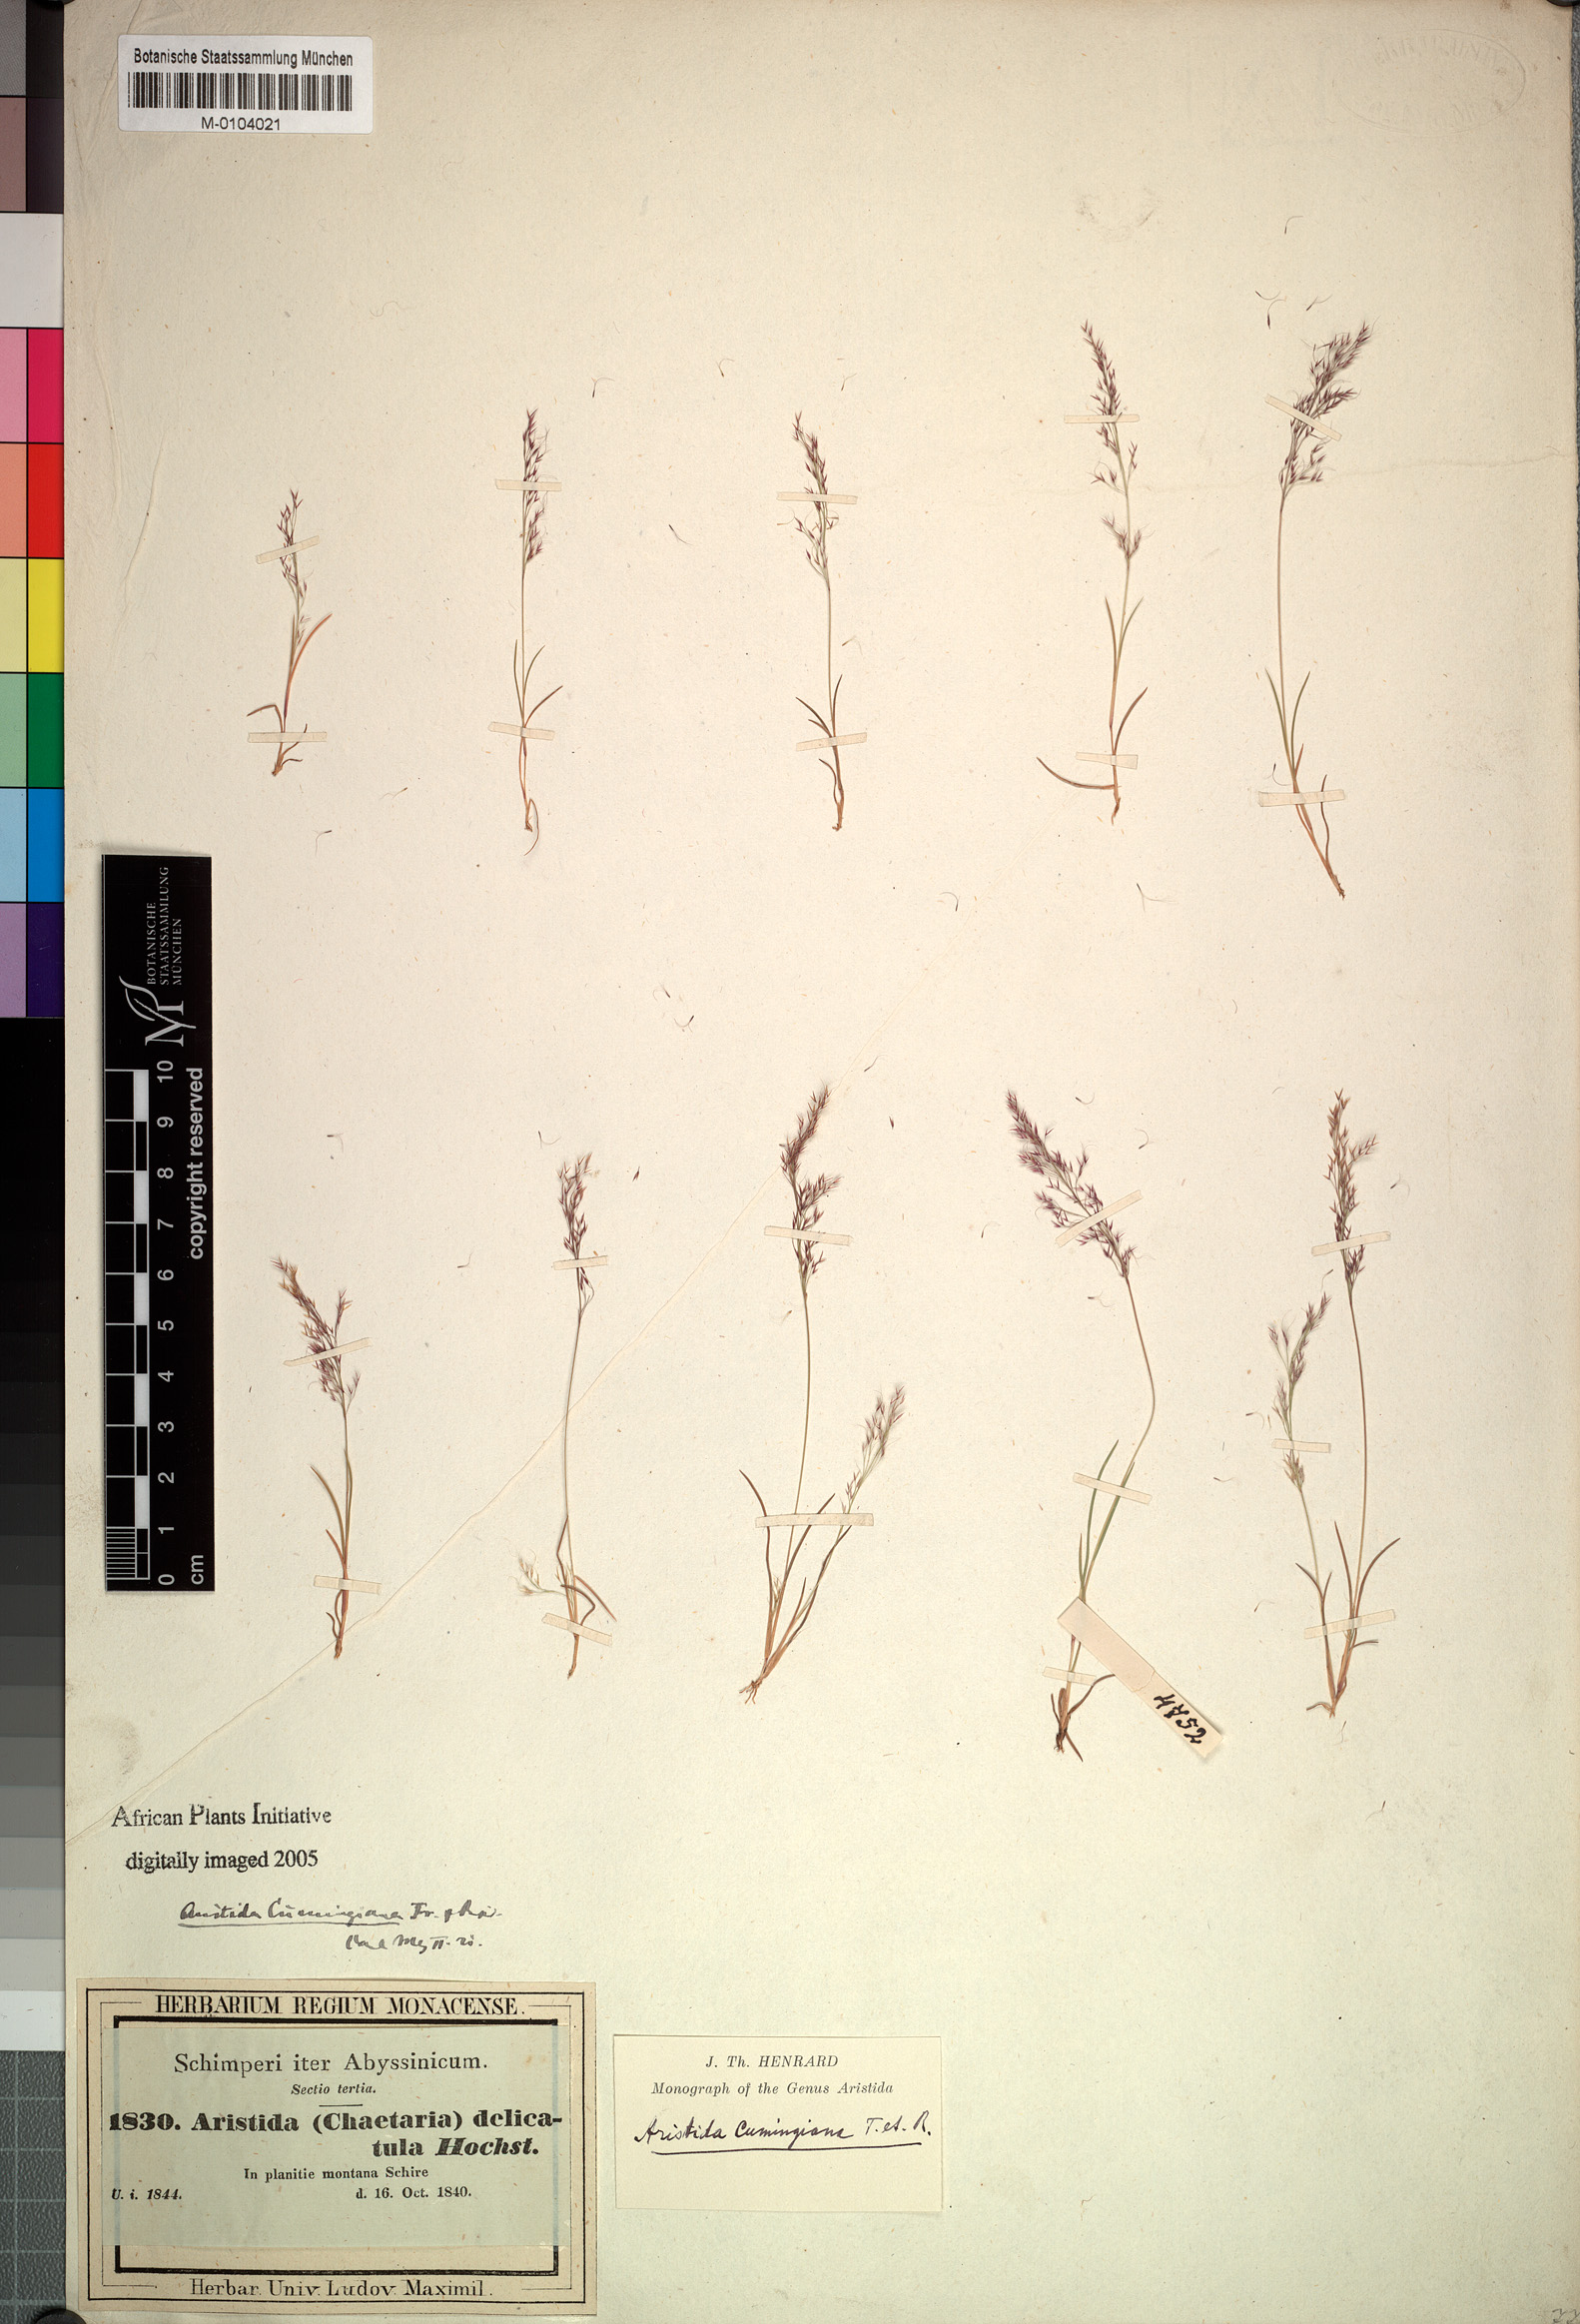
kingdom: Plantae
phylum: Tracheophyta
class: Liliopsida
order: Poales
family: Poaceae
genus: Aristida
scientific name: Aristida cumingiana
